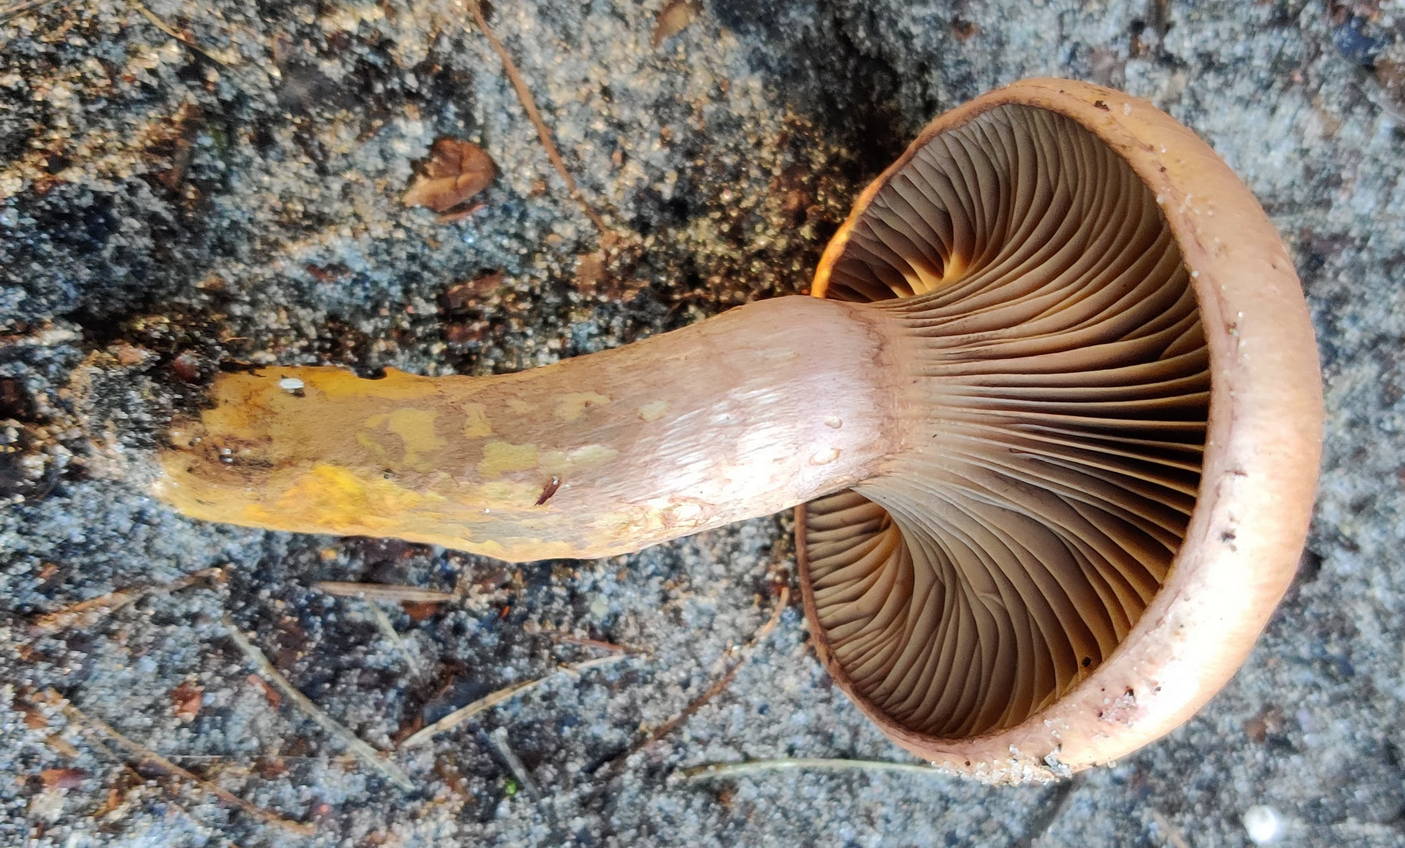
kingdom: Fungi
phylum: Basidiomycota
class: Agaricomycetes
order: Boletales
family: Gomphidiaceae
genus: Chroogomphus
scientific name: Chroogomphus rutilus
